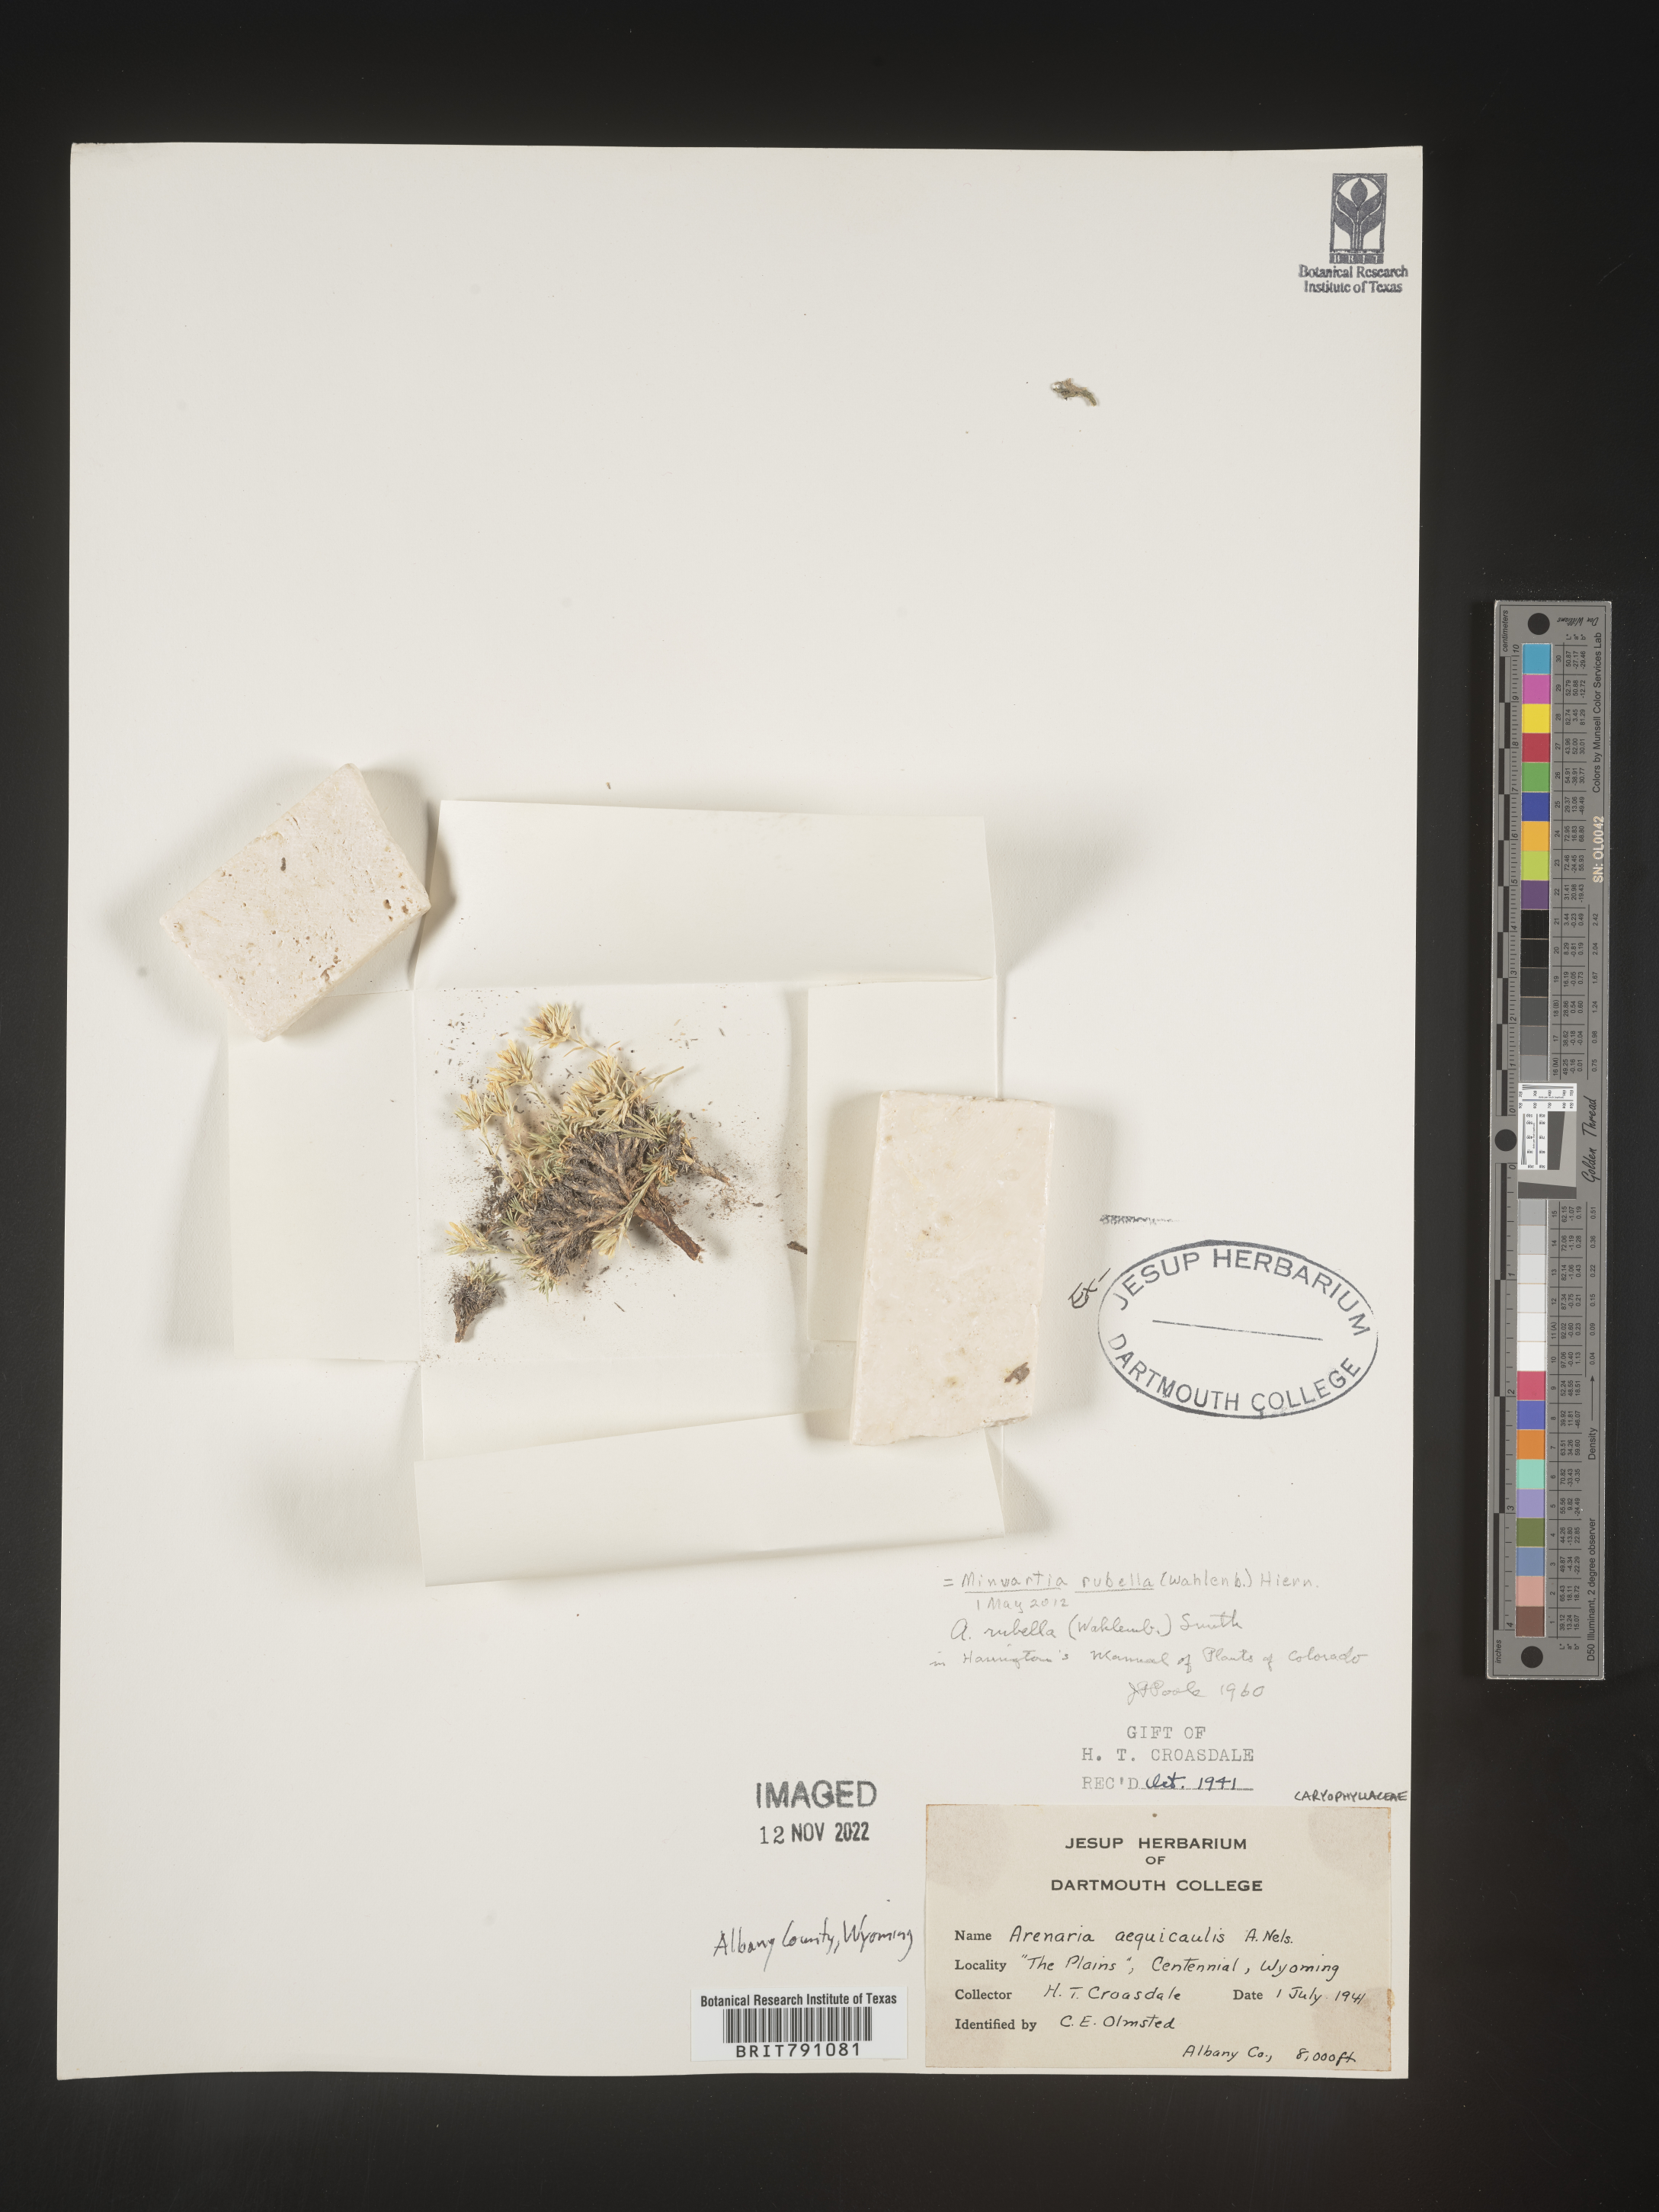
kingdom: Plantae
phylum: Tracheophyta
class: Magnoliopsida
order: Caryophyllales
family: Caryophyllaceae
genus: Minuartia
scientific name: Minuartia
